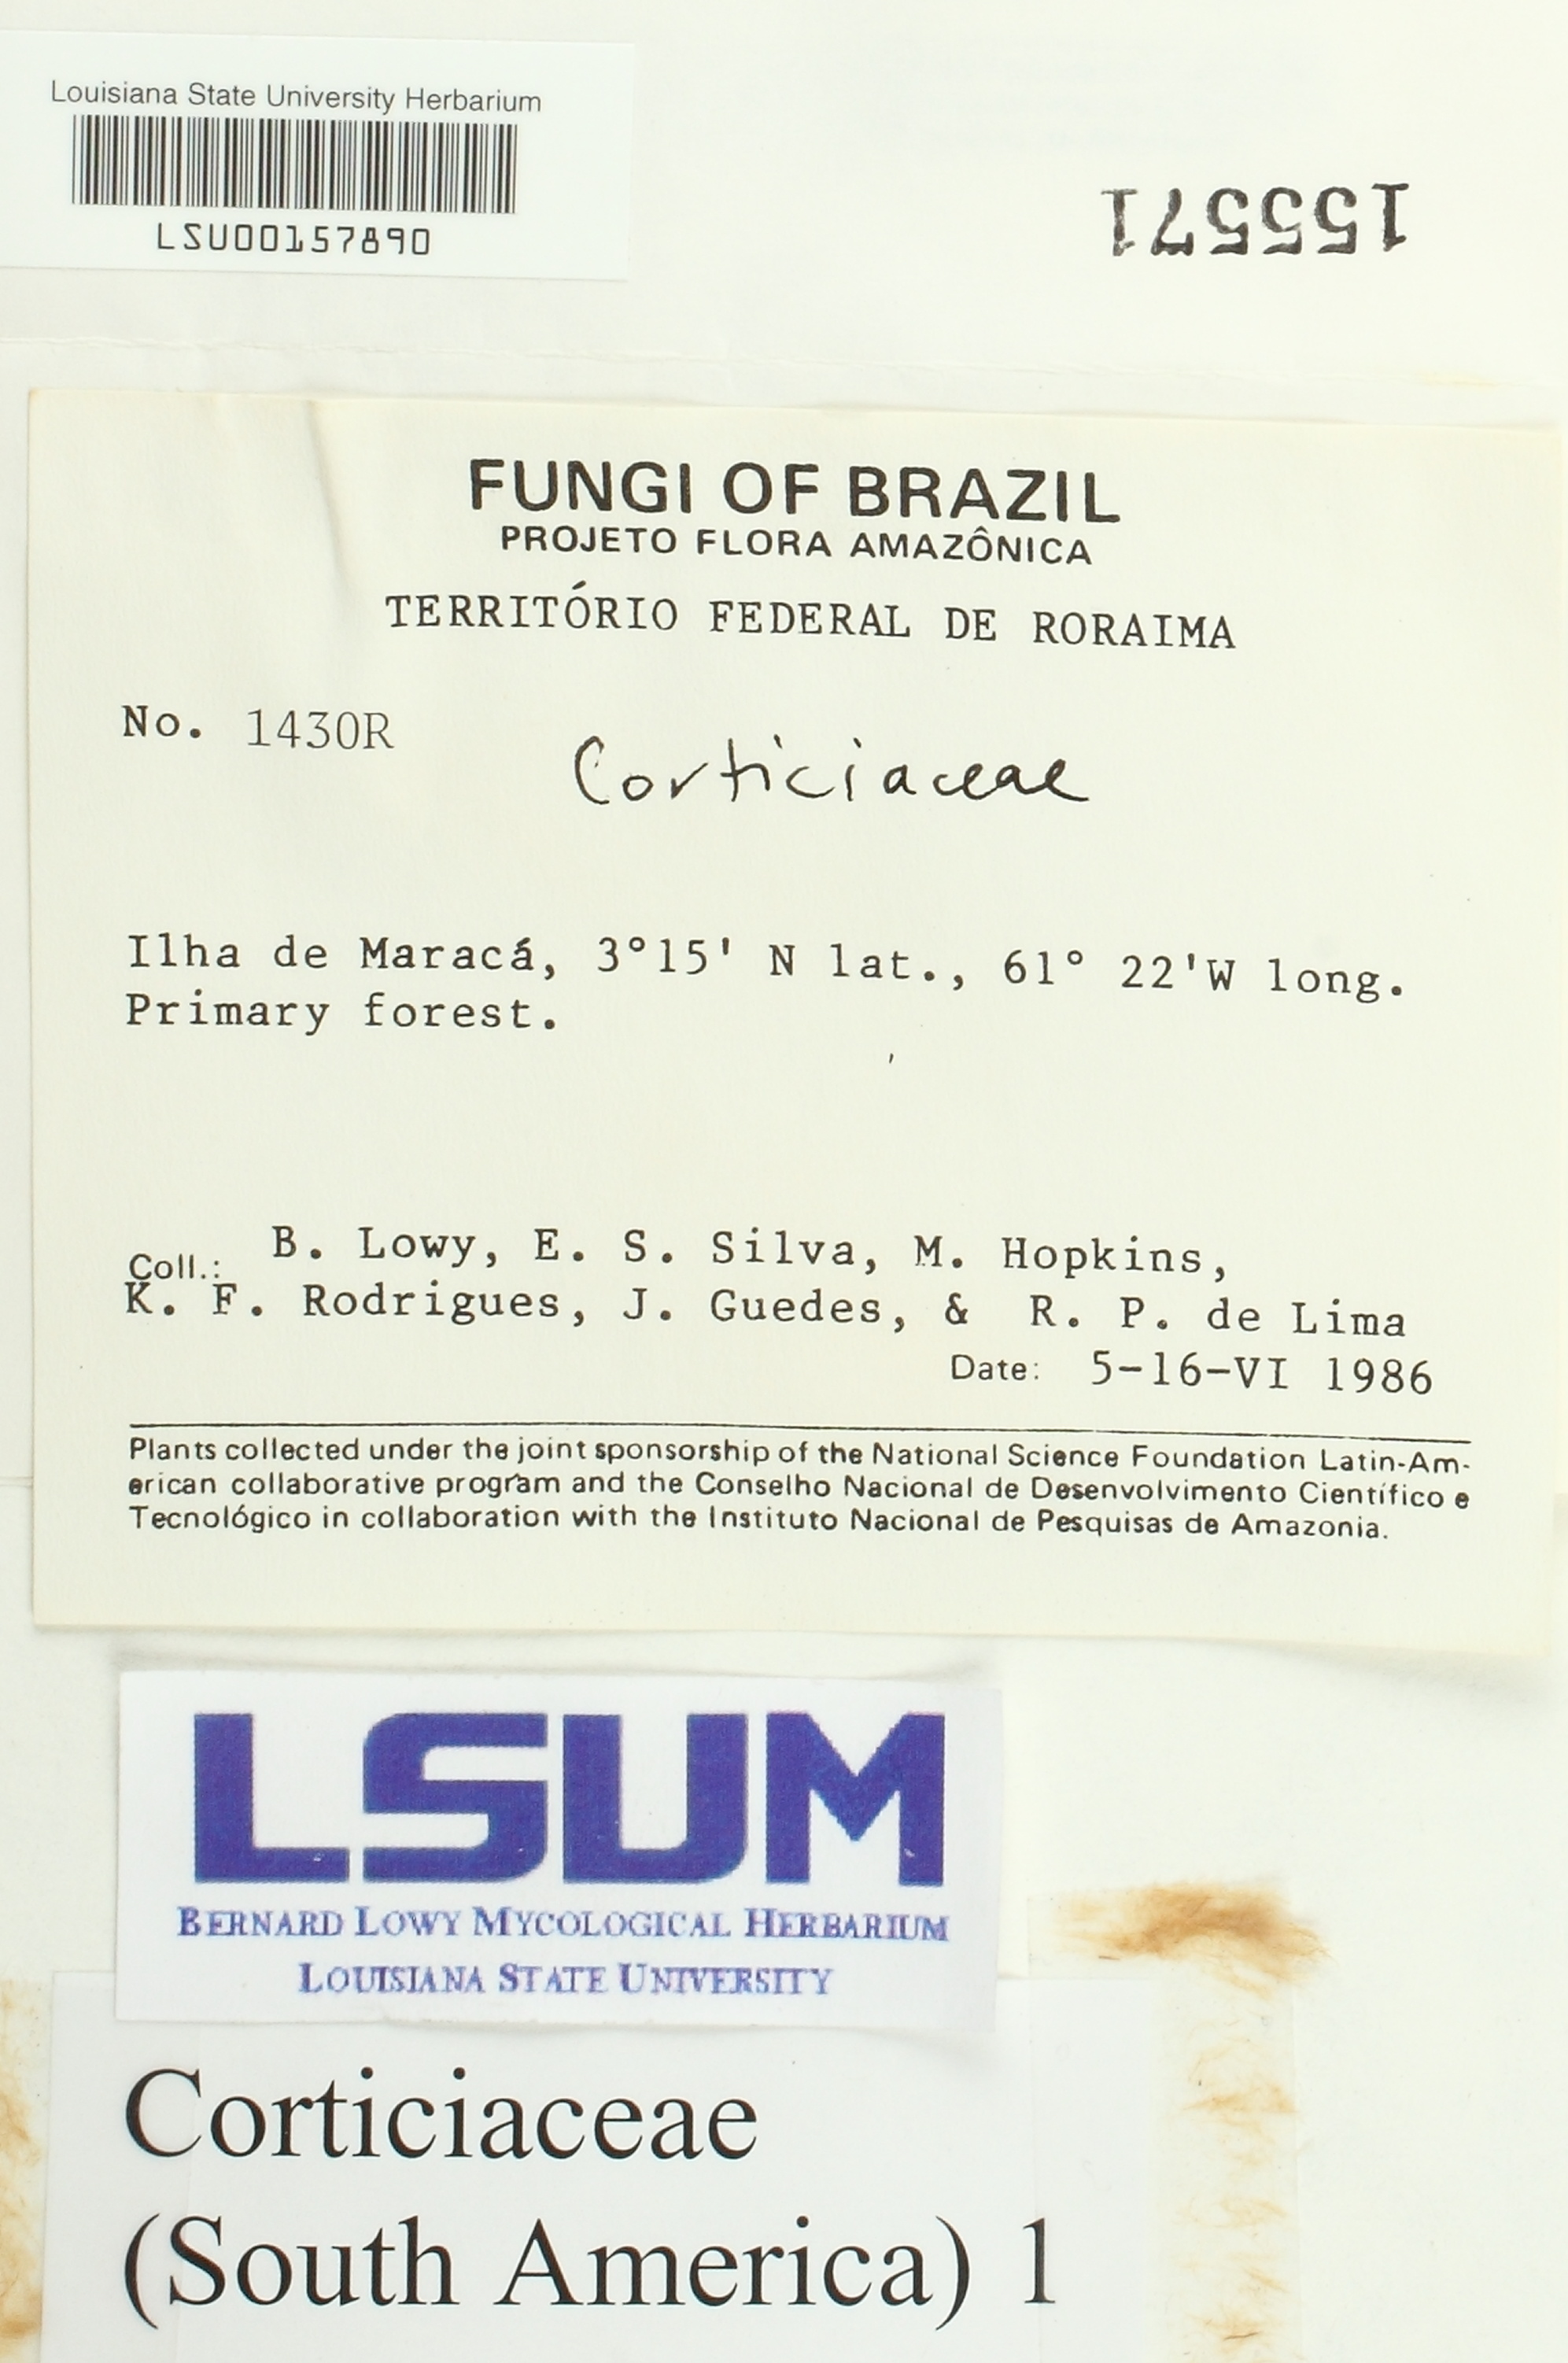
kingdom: Fungi
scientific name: Fungi
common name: Fungi
